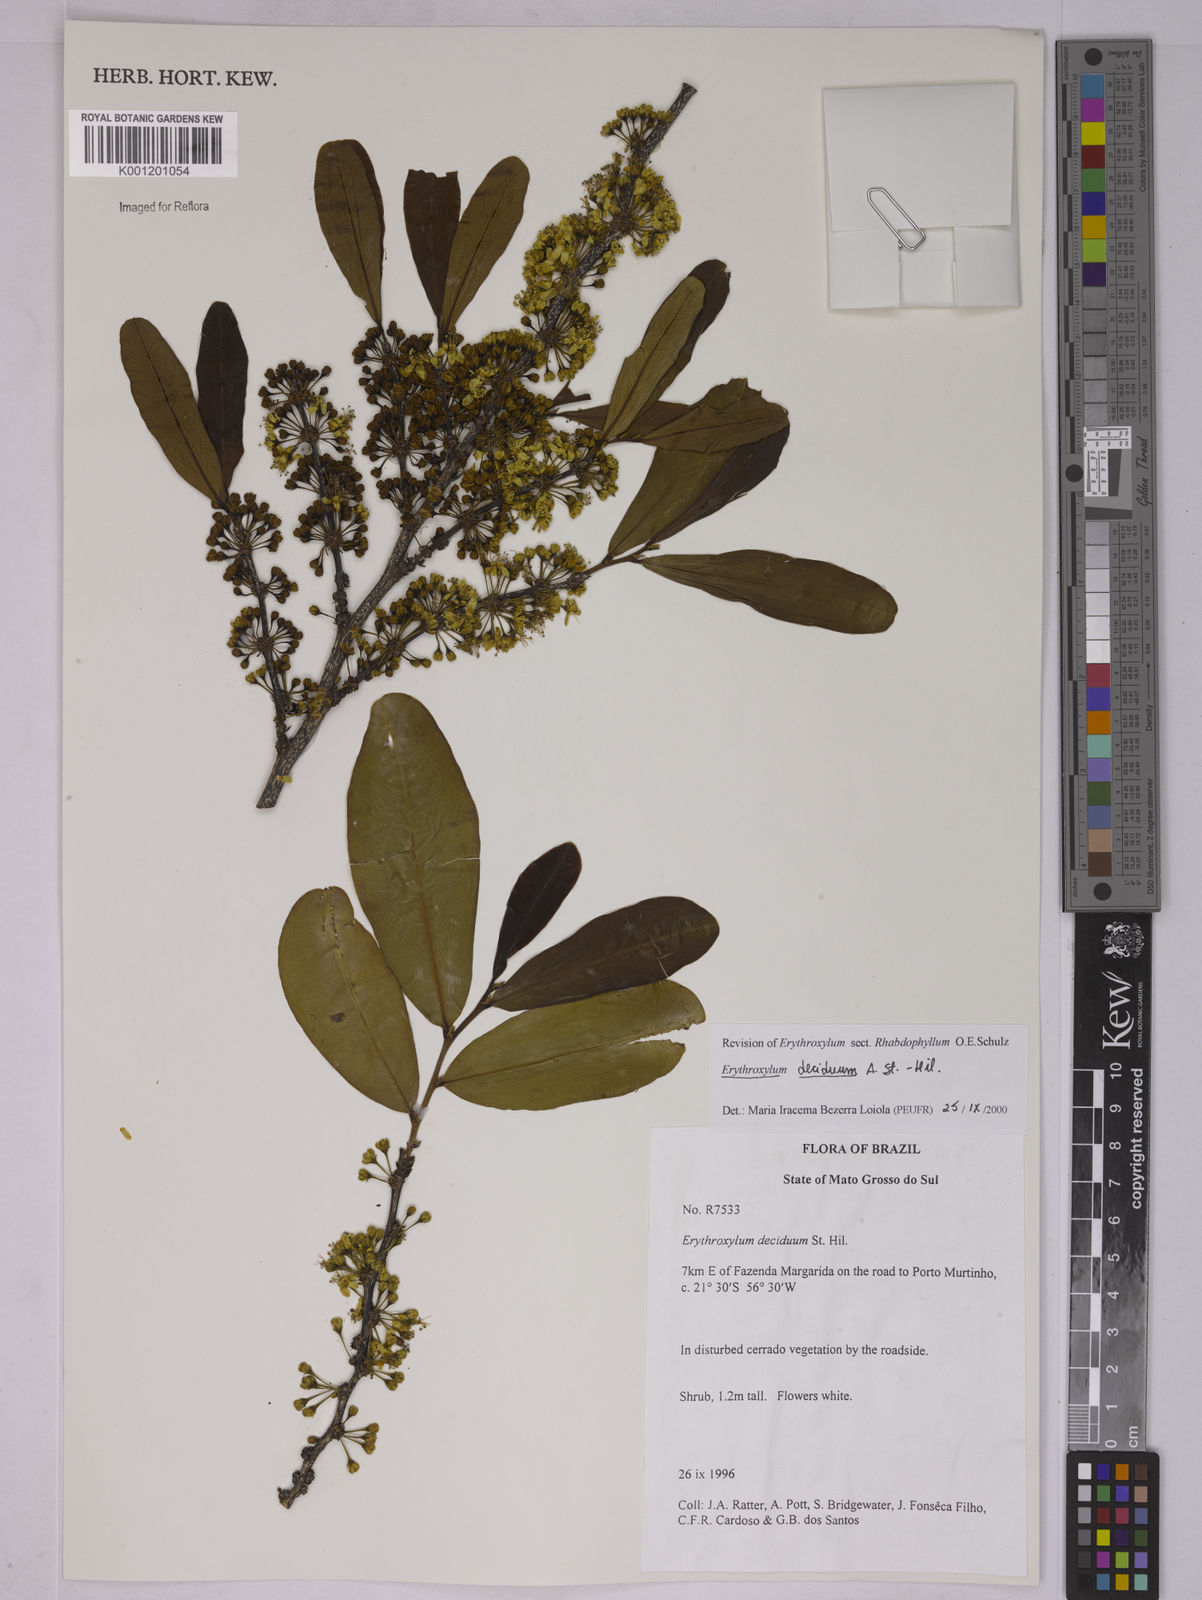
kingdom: Plantae
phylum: Tracheophyta
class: Magnoliopsida
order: Malpighiales
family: Erythroxylaceae
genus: Erythroxylum
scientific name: Erythroxylum deciduum
